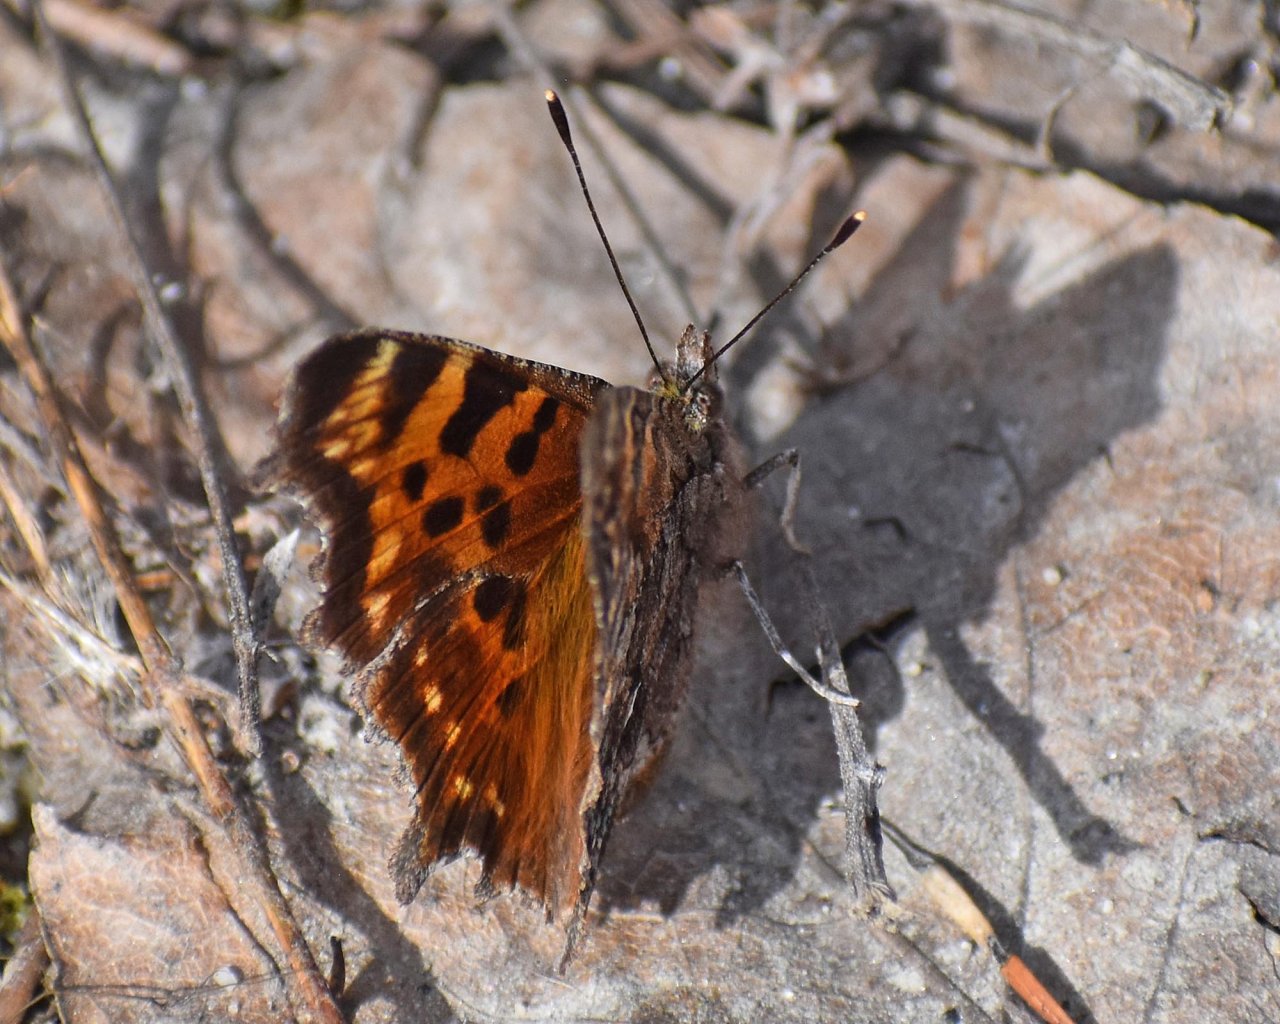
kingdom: Animalia
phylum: Arthropoda
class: Insecta
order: Lepidoptera
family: Nymphalidae
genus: Polygonia
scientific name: Polygonia faunus
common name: Green Comma
